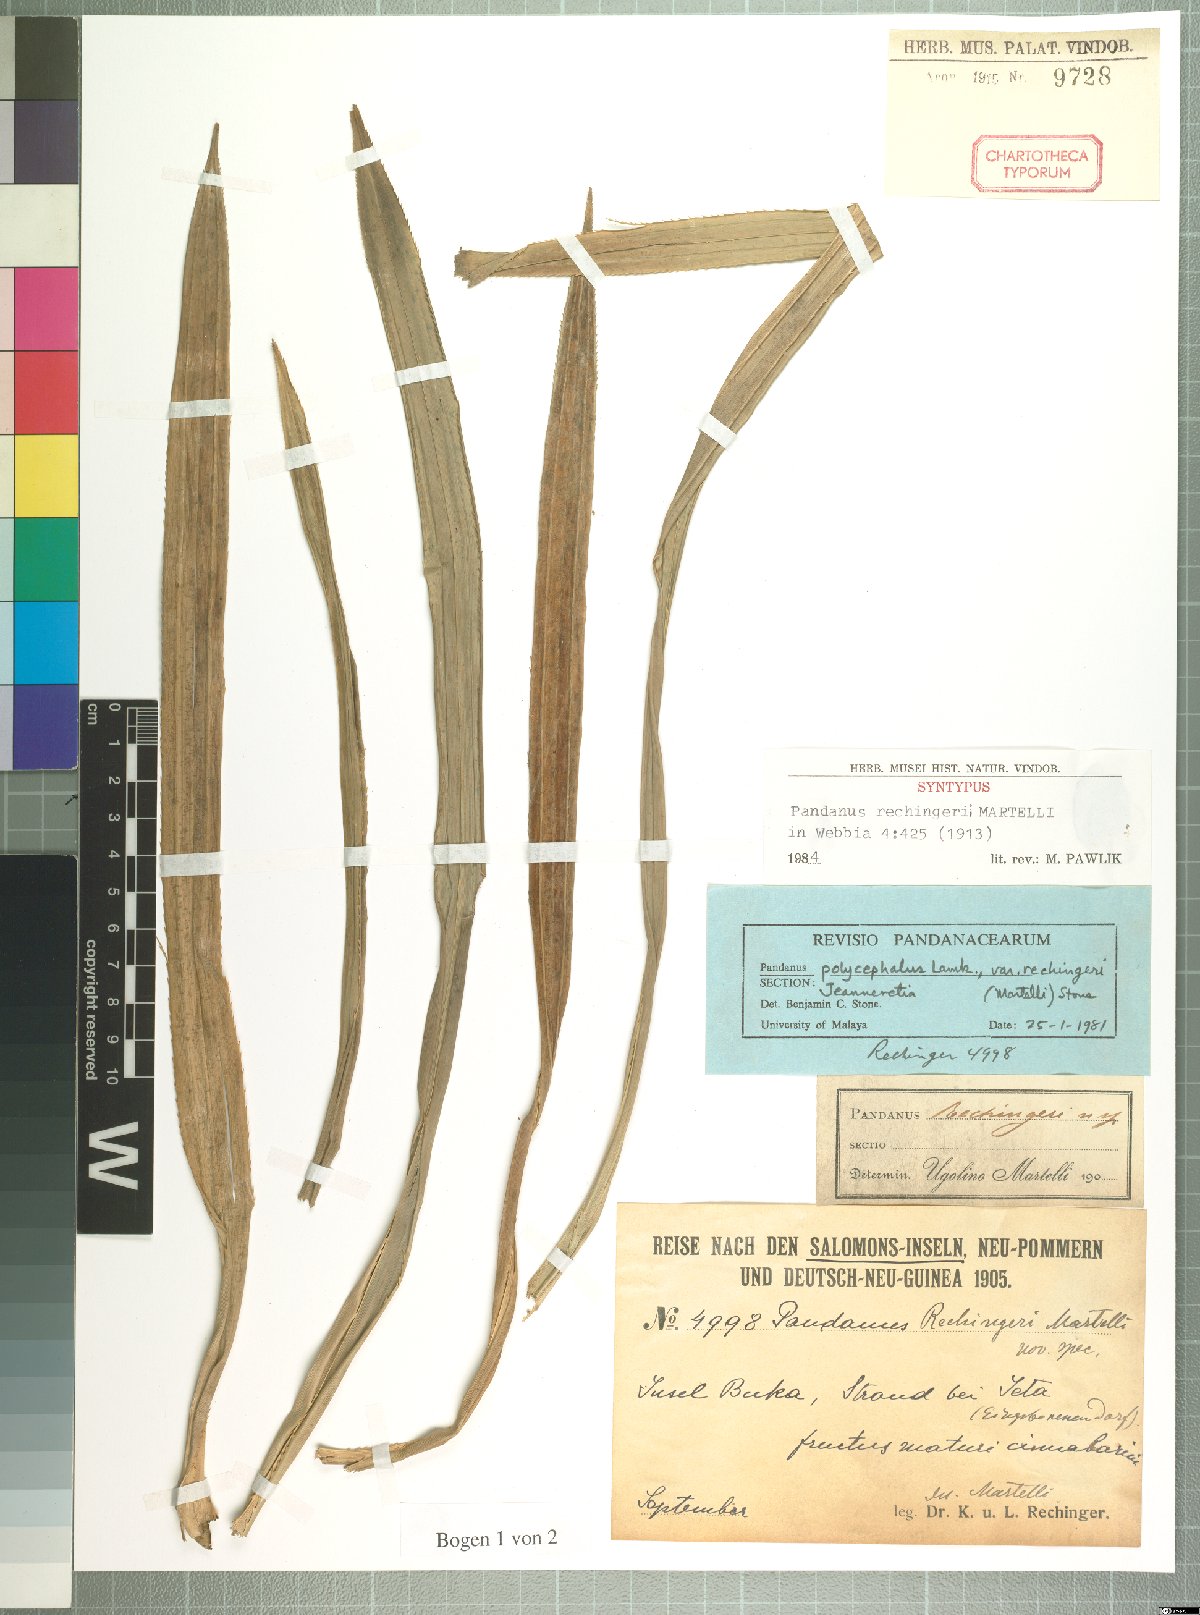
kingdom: Plantae
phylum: Tracheophyta
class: Liliopsida
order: Pandanales
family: Pandanaceae
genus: Pandanus
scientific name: Pandanus polycephalus
